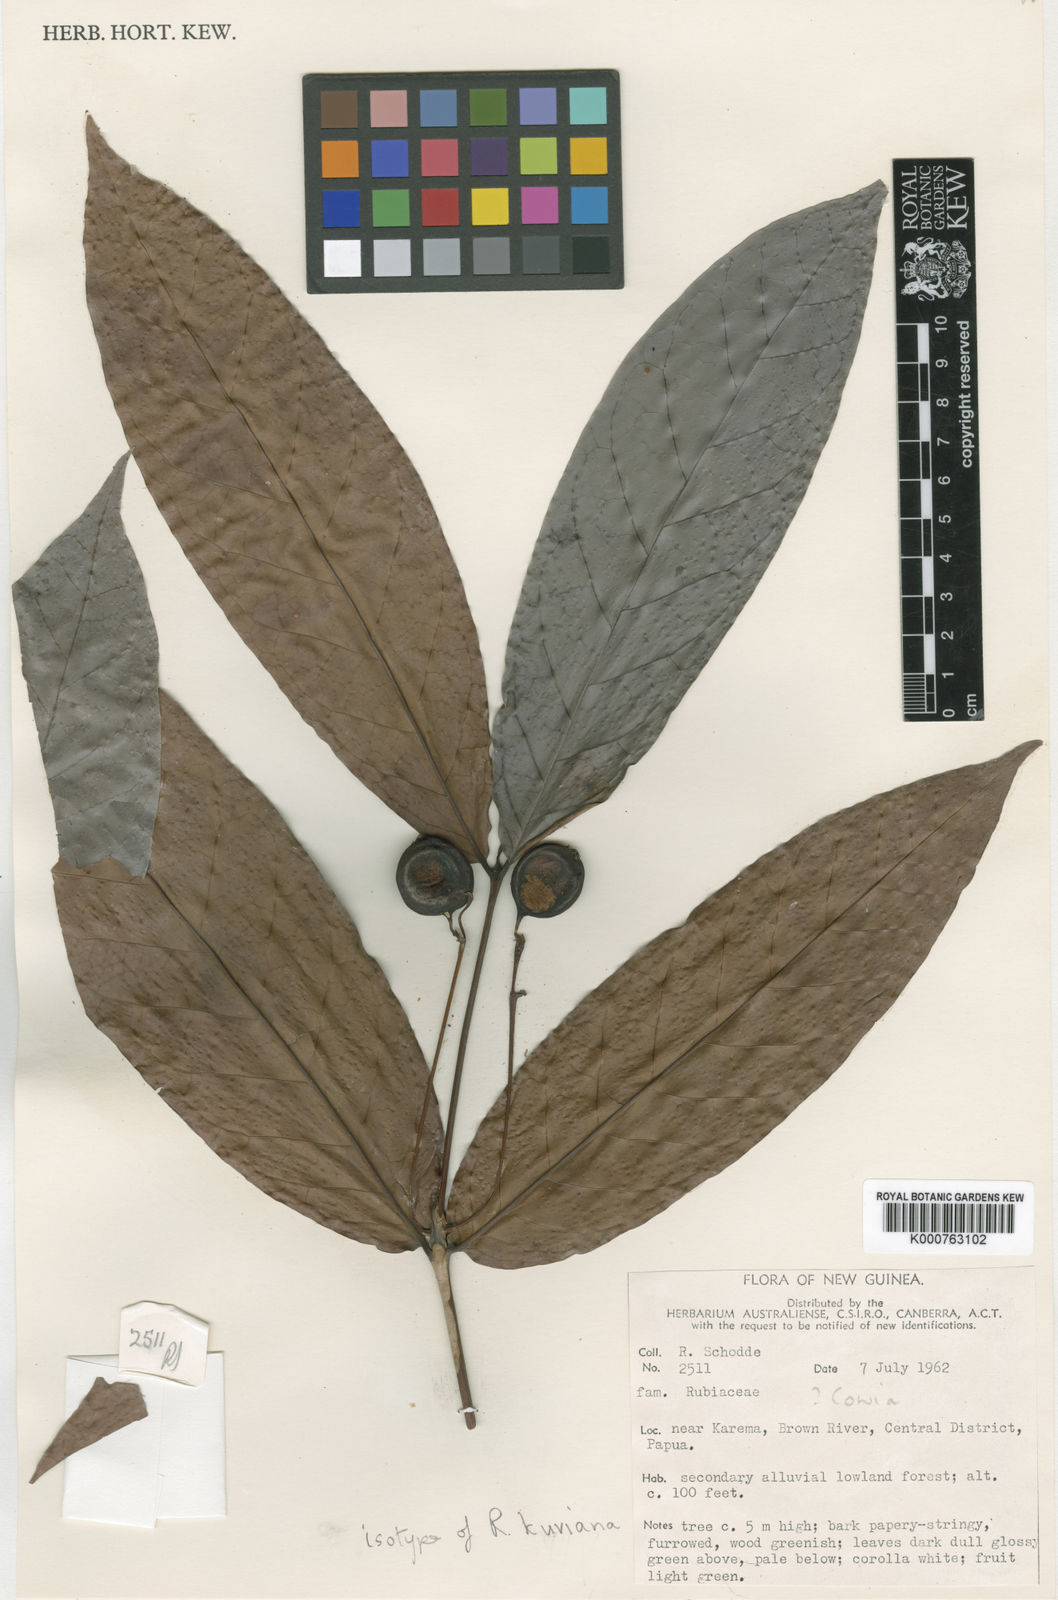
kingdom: Plantae
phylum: Tracheophyta
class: Magnoliopsida
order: Gentianales
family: Rubiaceae
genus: Rhadinopus
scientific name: Rhadinopus kurivana
